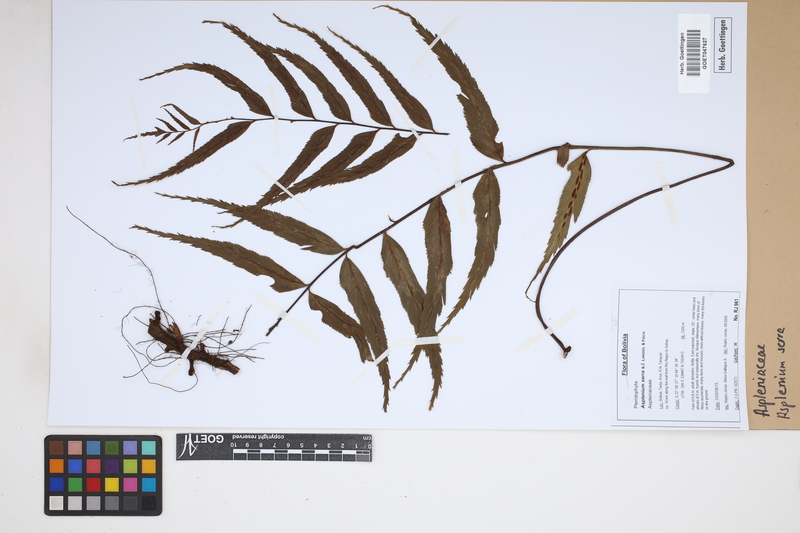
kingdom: Plantae
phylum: Tracheophyta
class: Polypodiopsida
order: Polypodiales
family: Aspleniaceae
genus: Asplenium
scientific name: Asplenium serra
